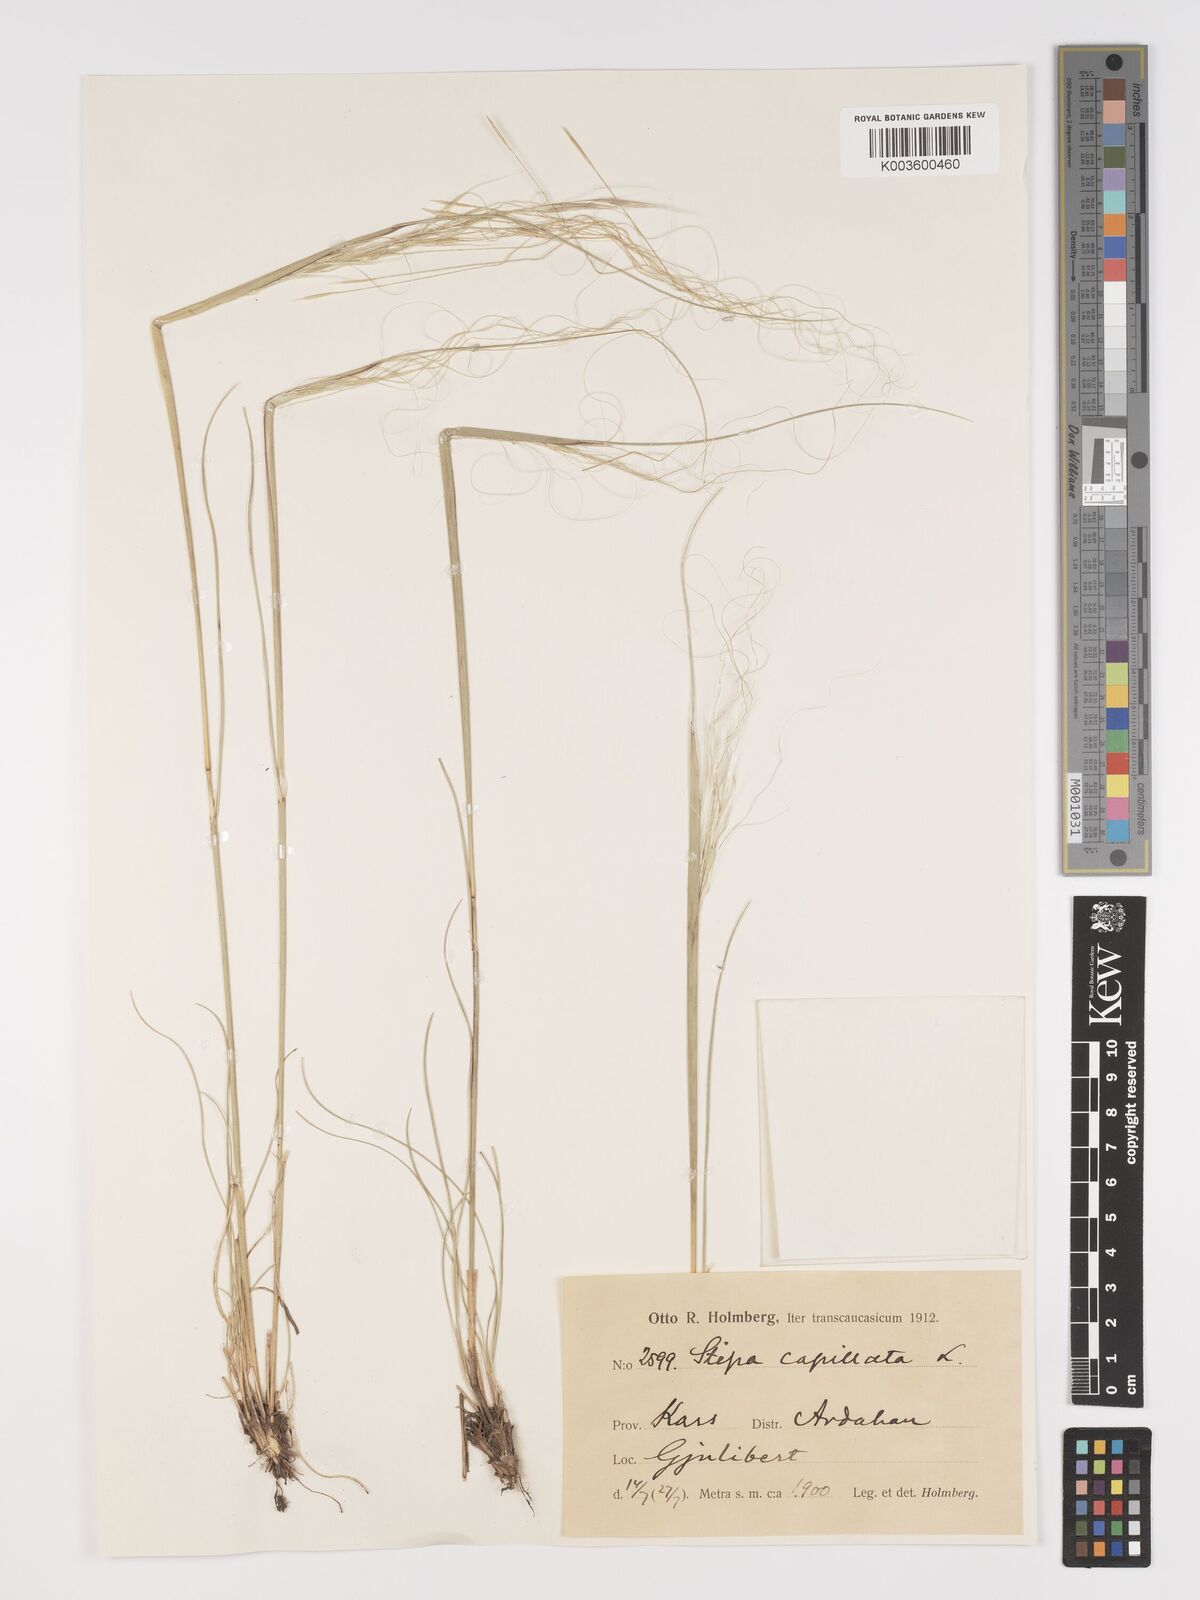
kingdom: Plantae
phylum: Tracheophyta
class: Liliopsida
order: Poales
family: Poaceae
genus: Stipa
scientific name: Stipa capillata
